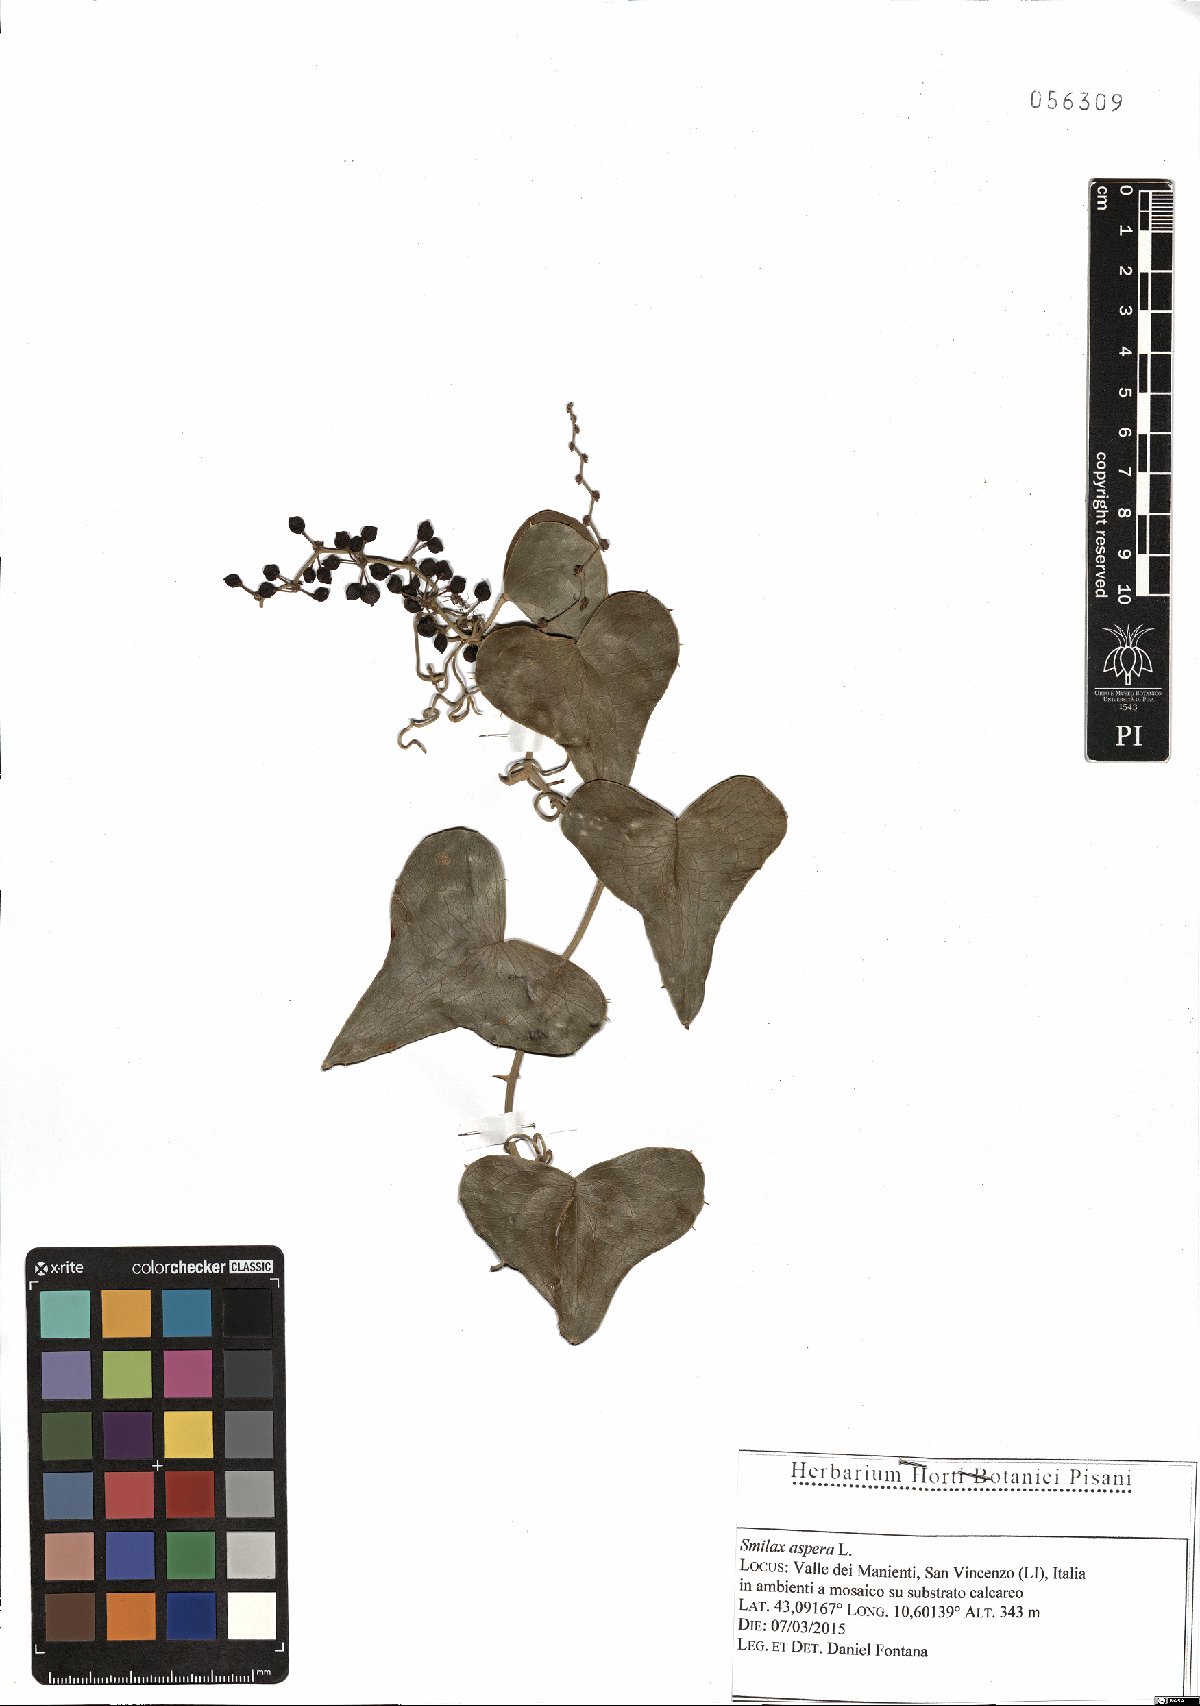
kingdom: Plantae
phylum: Tracheophyta
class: Liliopsida
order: Liliales
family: Smilacaceae
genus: Smilax
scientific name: Smilax aspera
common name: Common smilax
